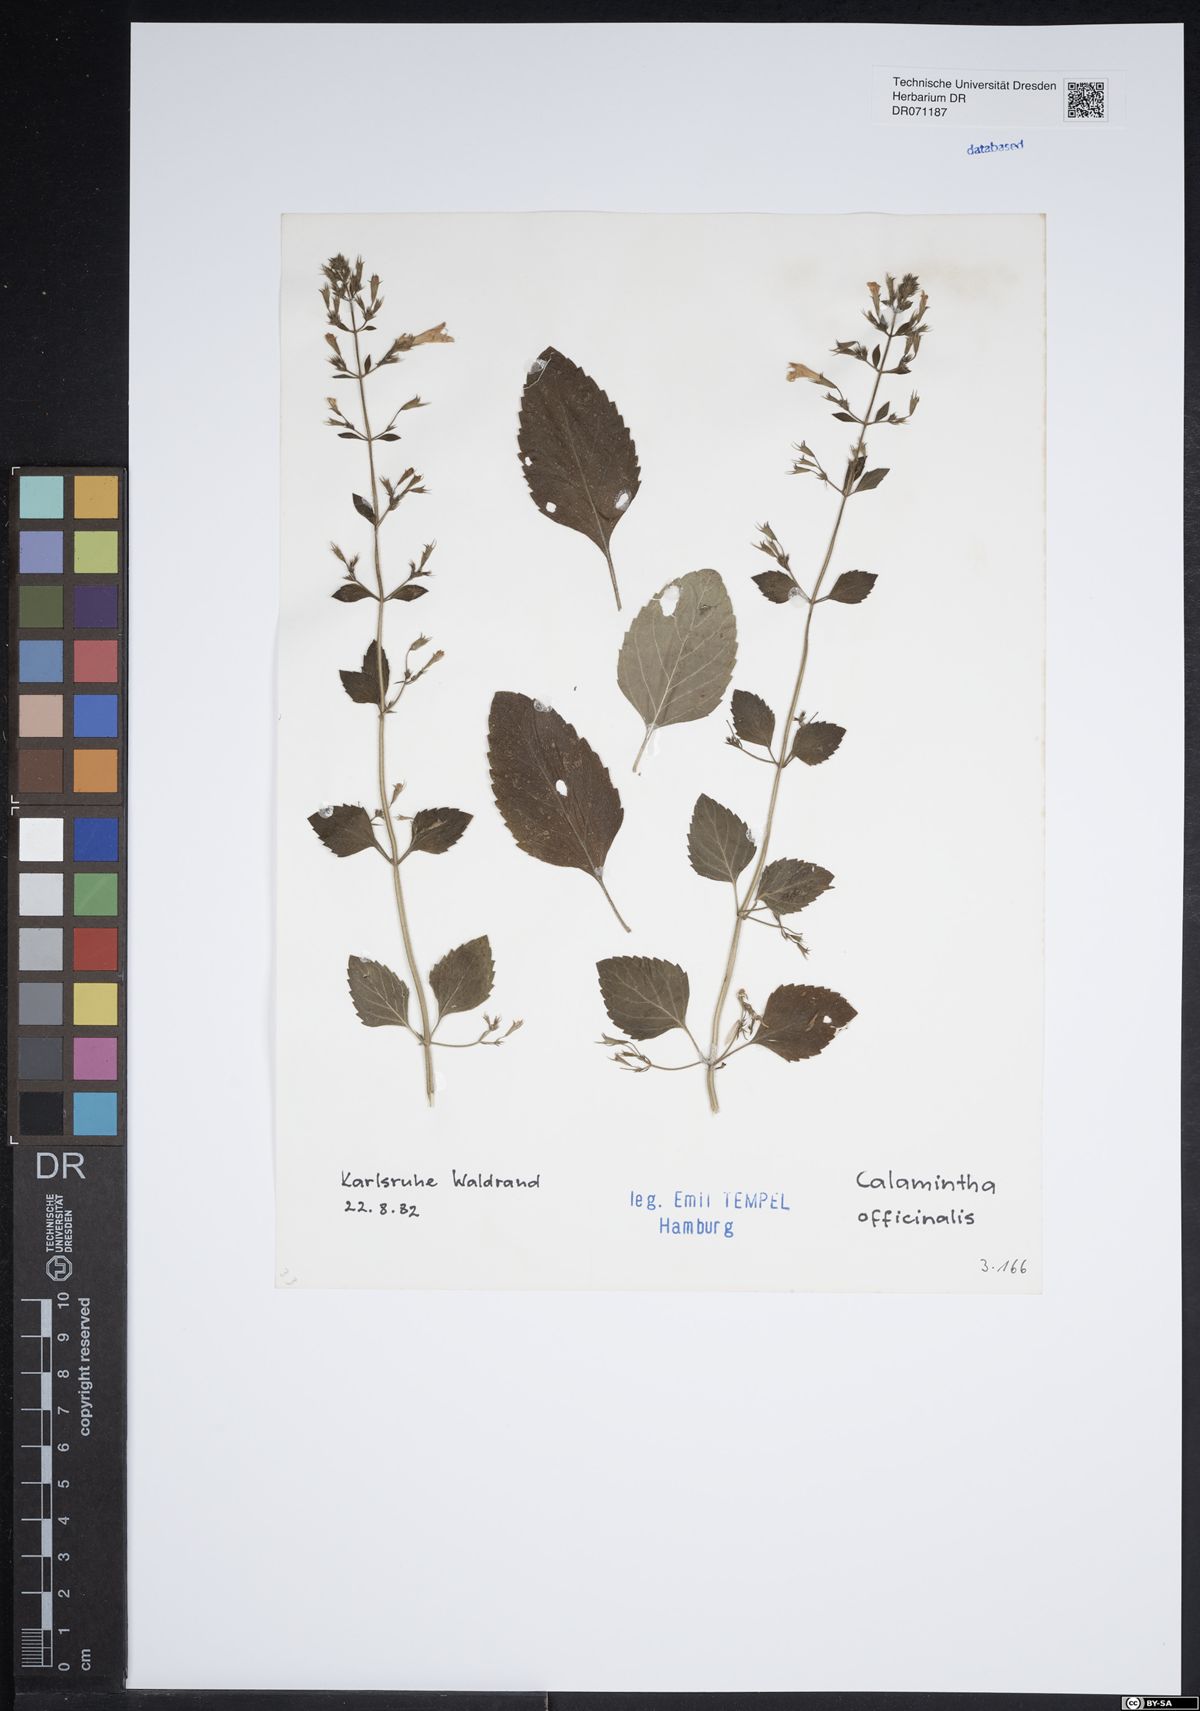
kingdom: Plantae
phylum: Tracheophyta
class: Magnoliopsida
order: Lamiales
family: Lamiaceae
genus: Clinopodium
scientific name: Clinopodium nepeta
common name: Lesser calamint
